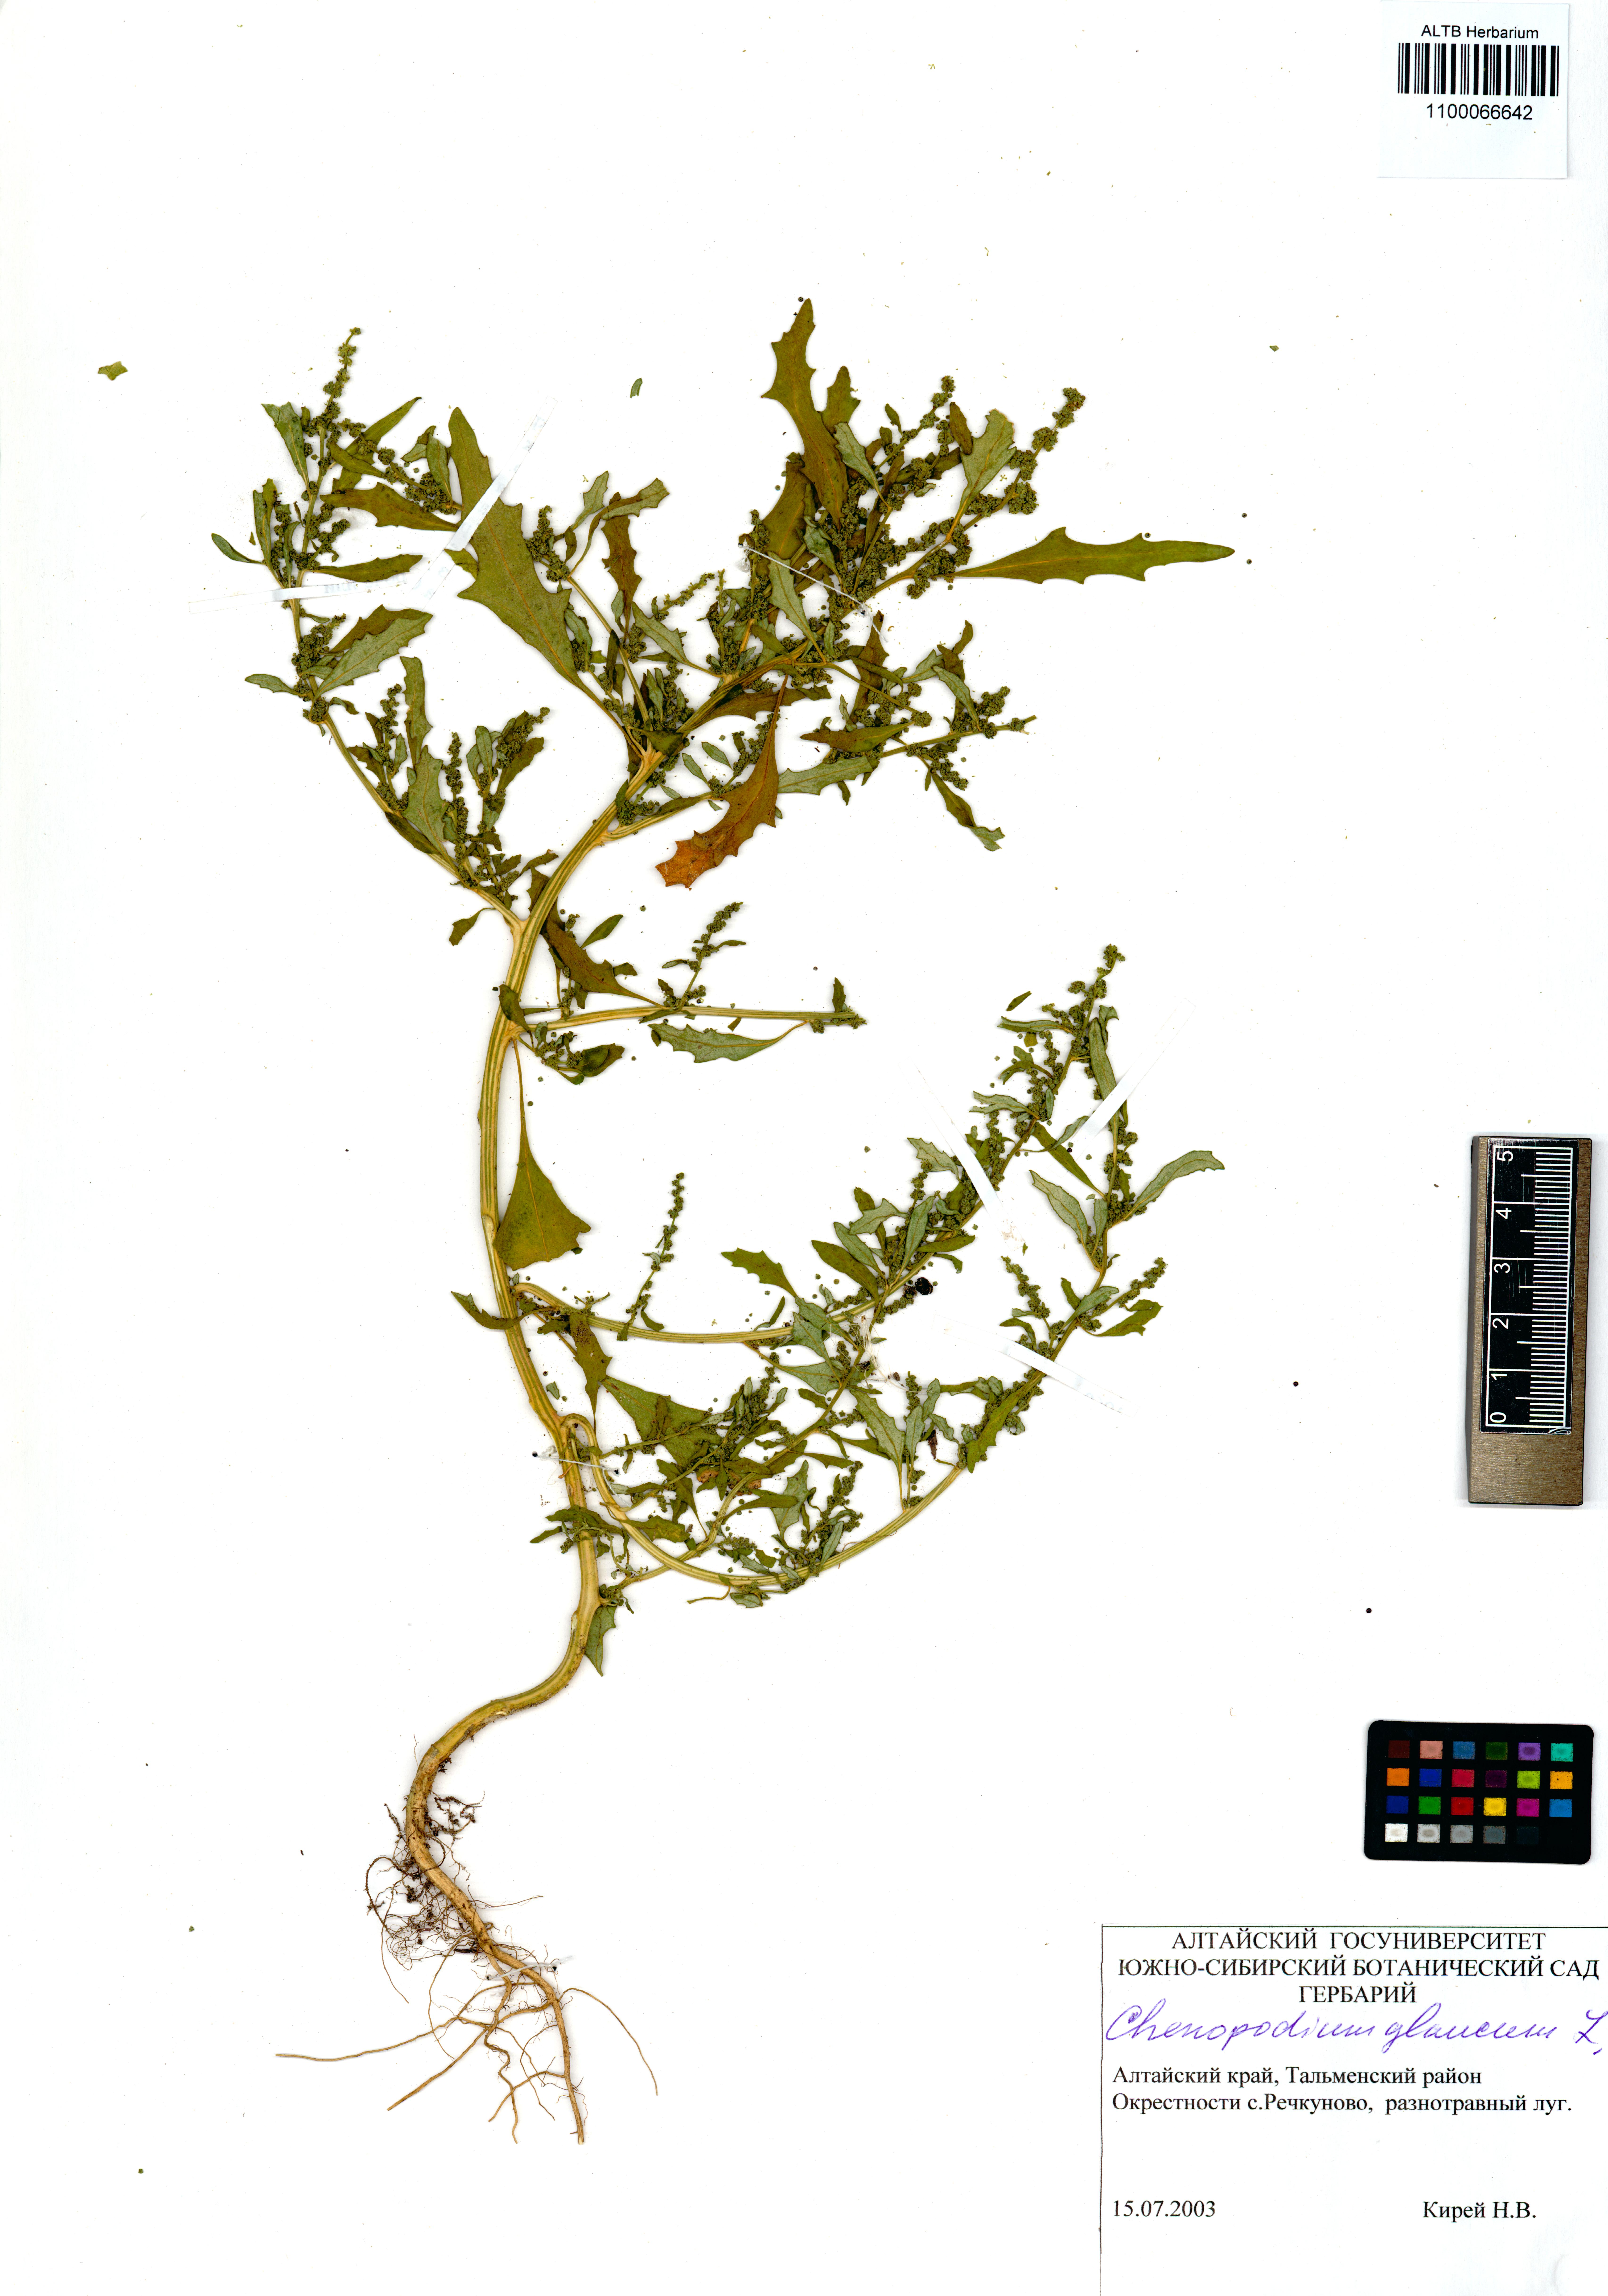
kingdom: Plantae
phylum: Tracheophyta
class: Magnoliopsida
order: Caryophyllales
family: Amaranthaceae
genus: Oxybasis
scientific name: Oxybasis glauca
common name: Glaucous goosefoot
